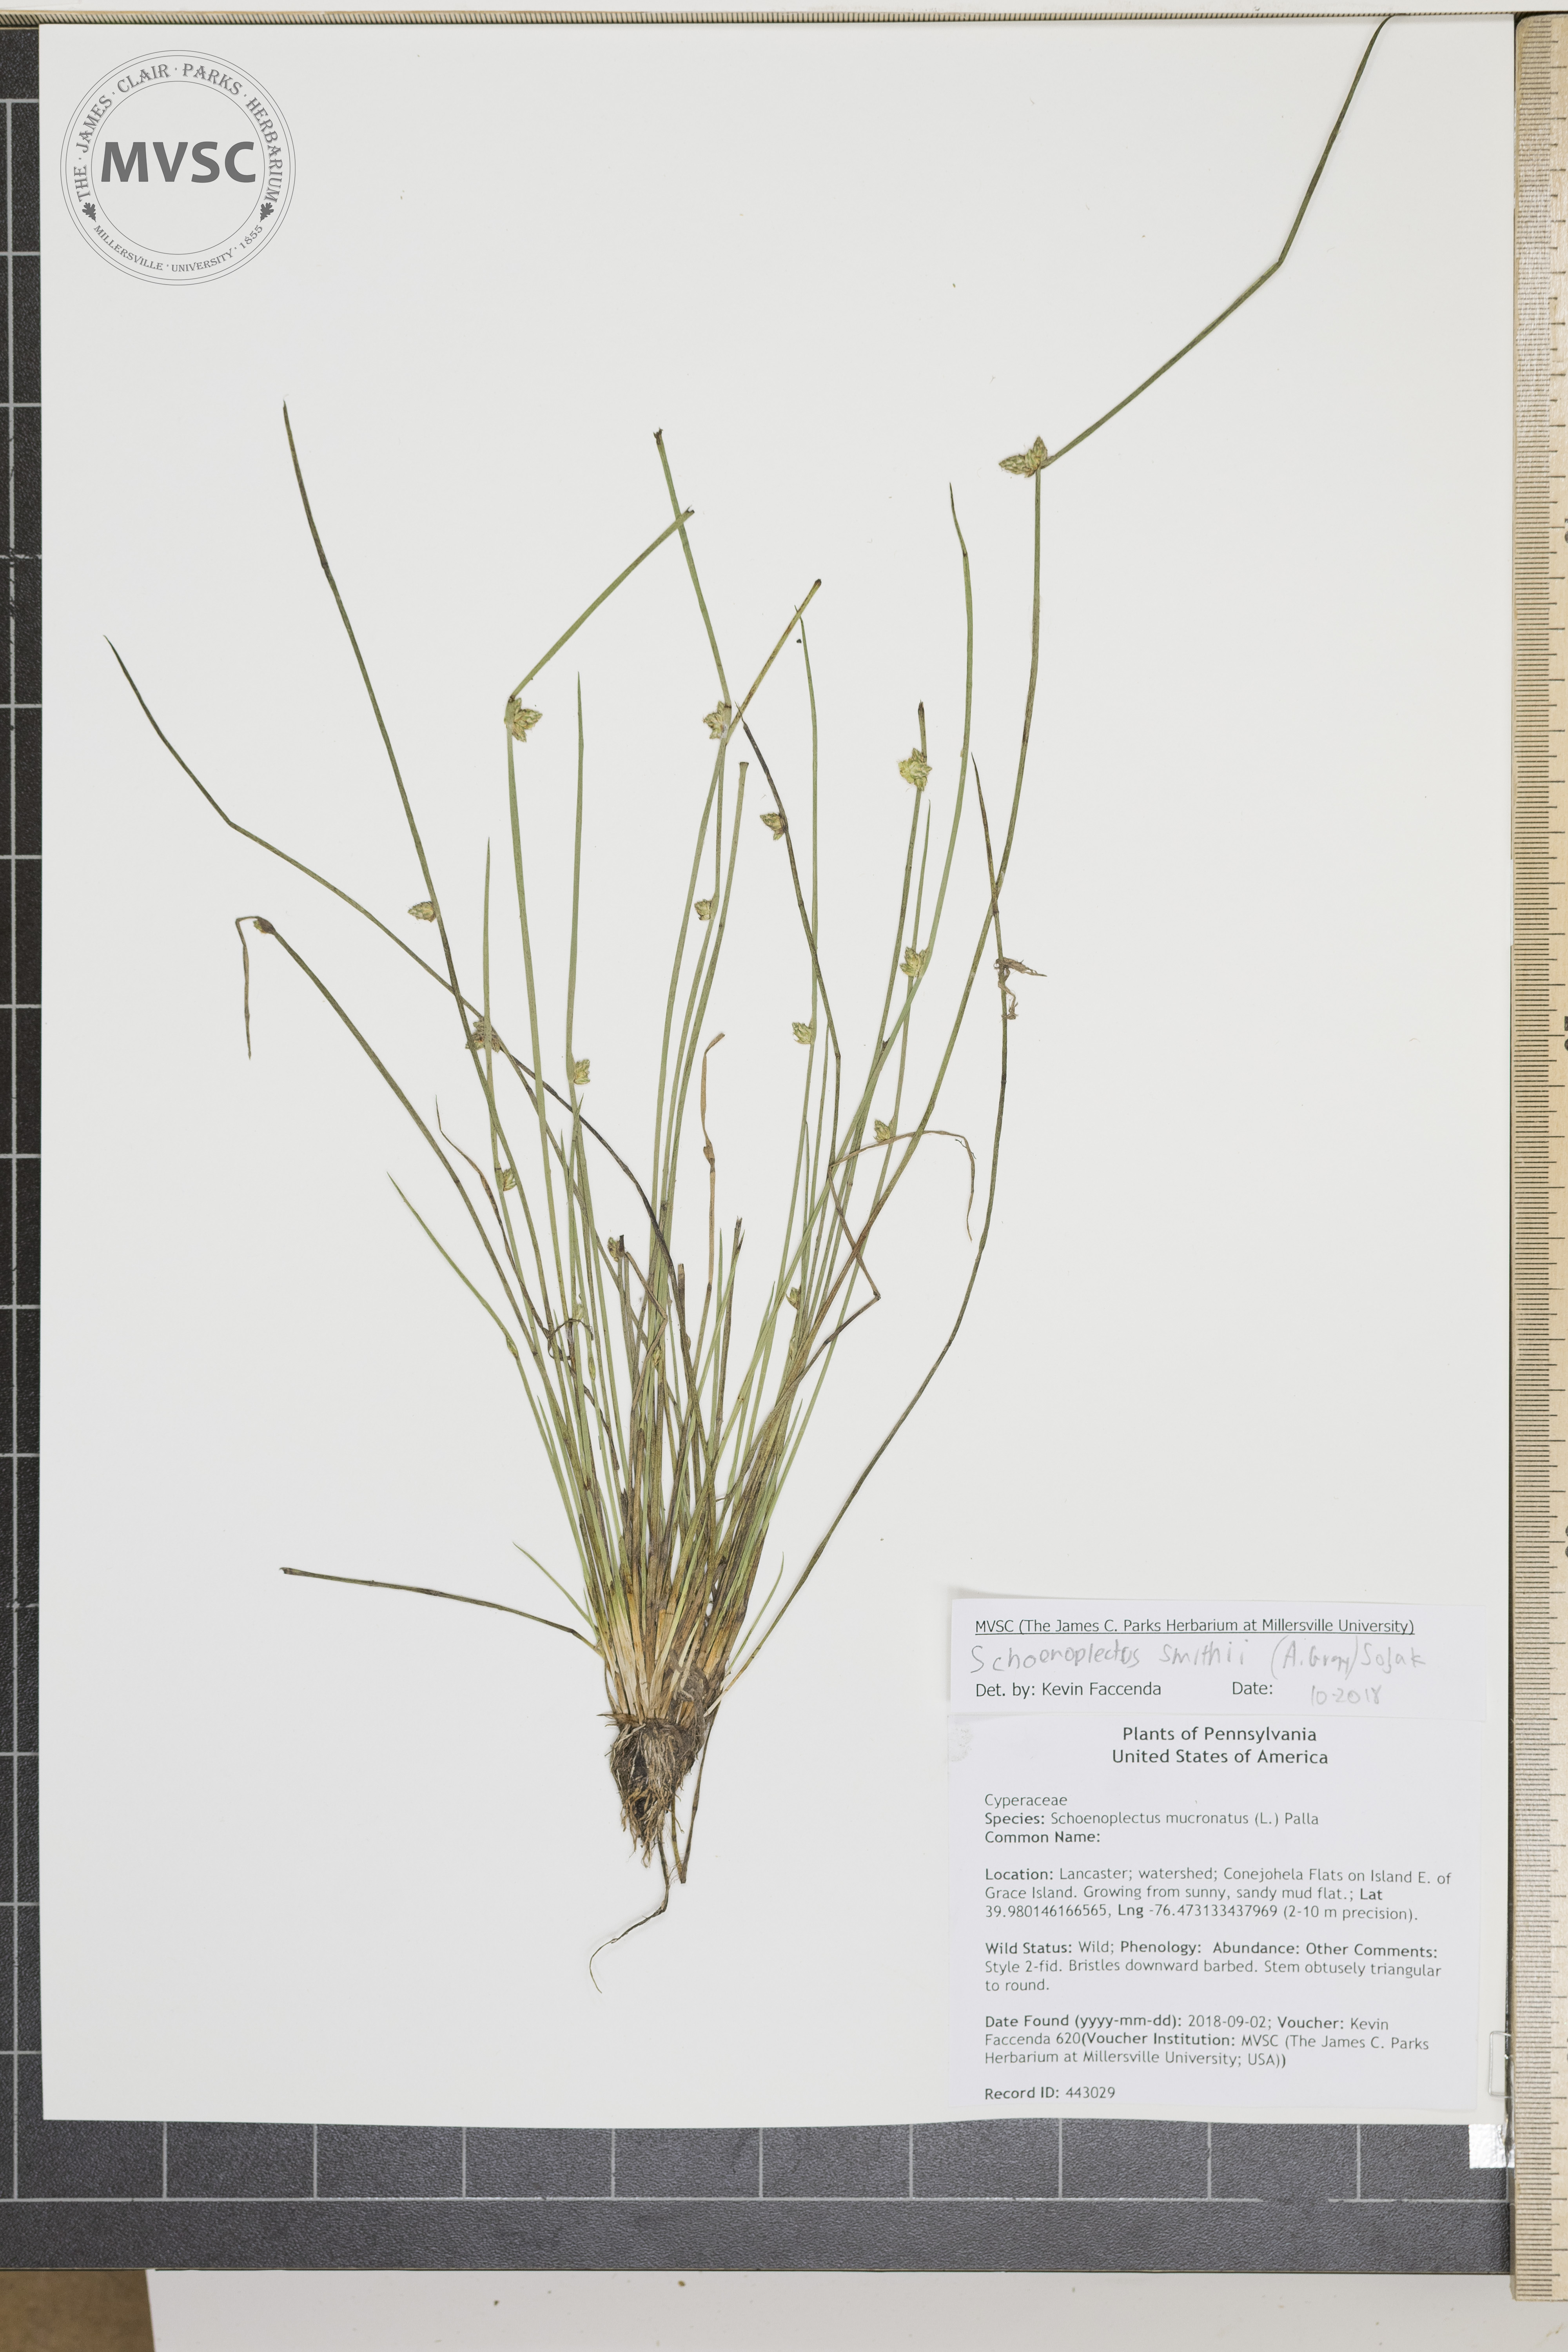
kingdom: Plantae
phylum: Tracheophyta
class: Liliopsida
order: Poales
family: Cyperaceae
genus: Schoenoplectiella
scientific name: Schoenoplectiella smithii
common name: Smith's bulrush
